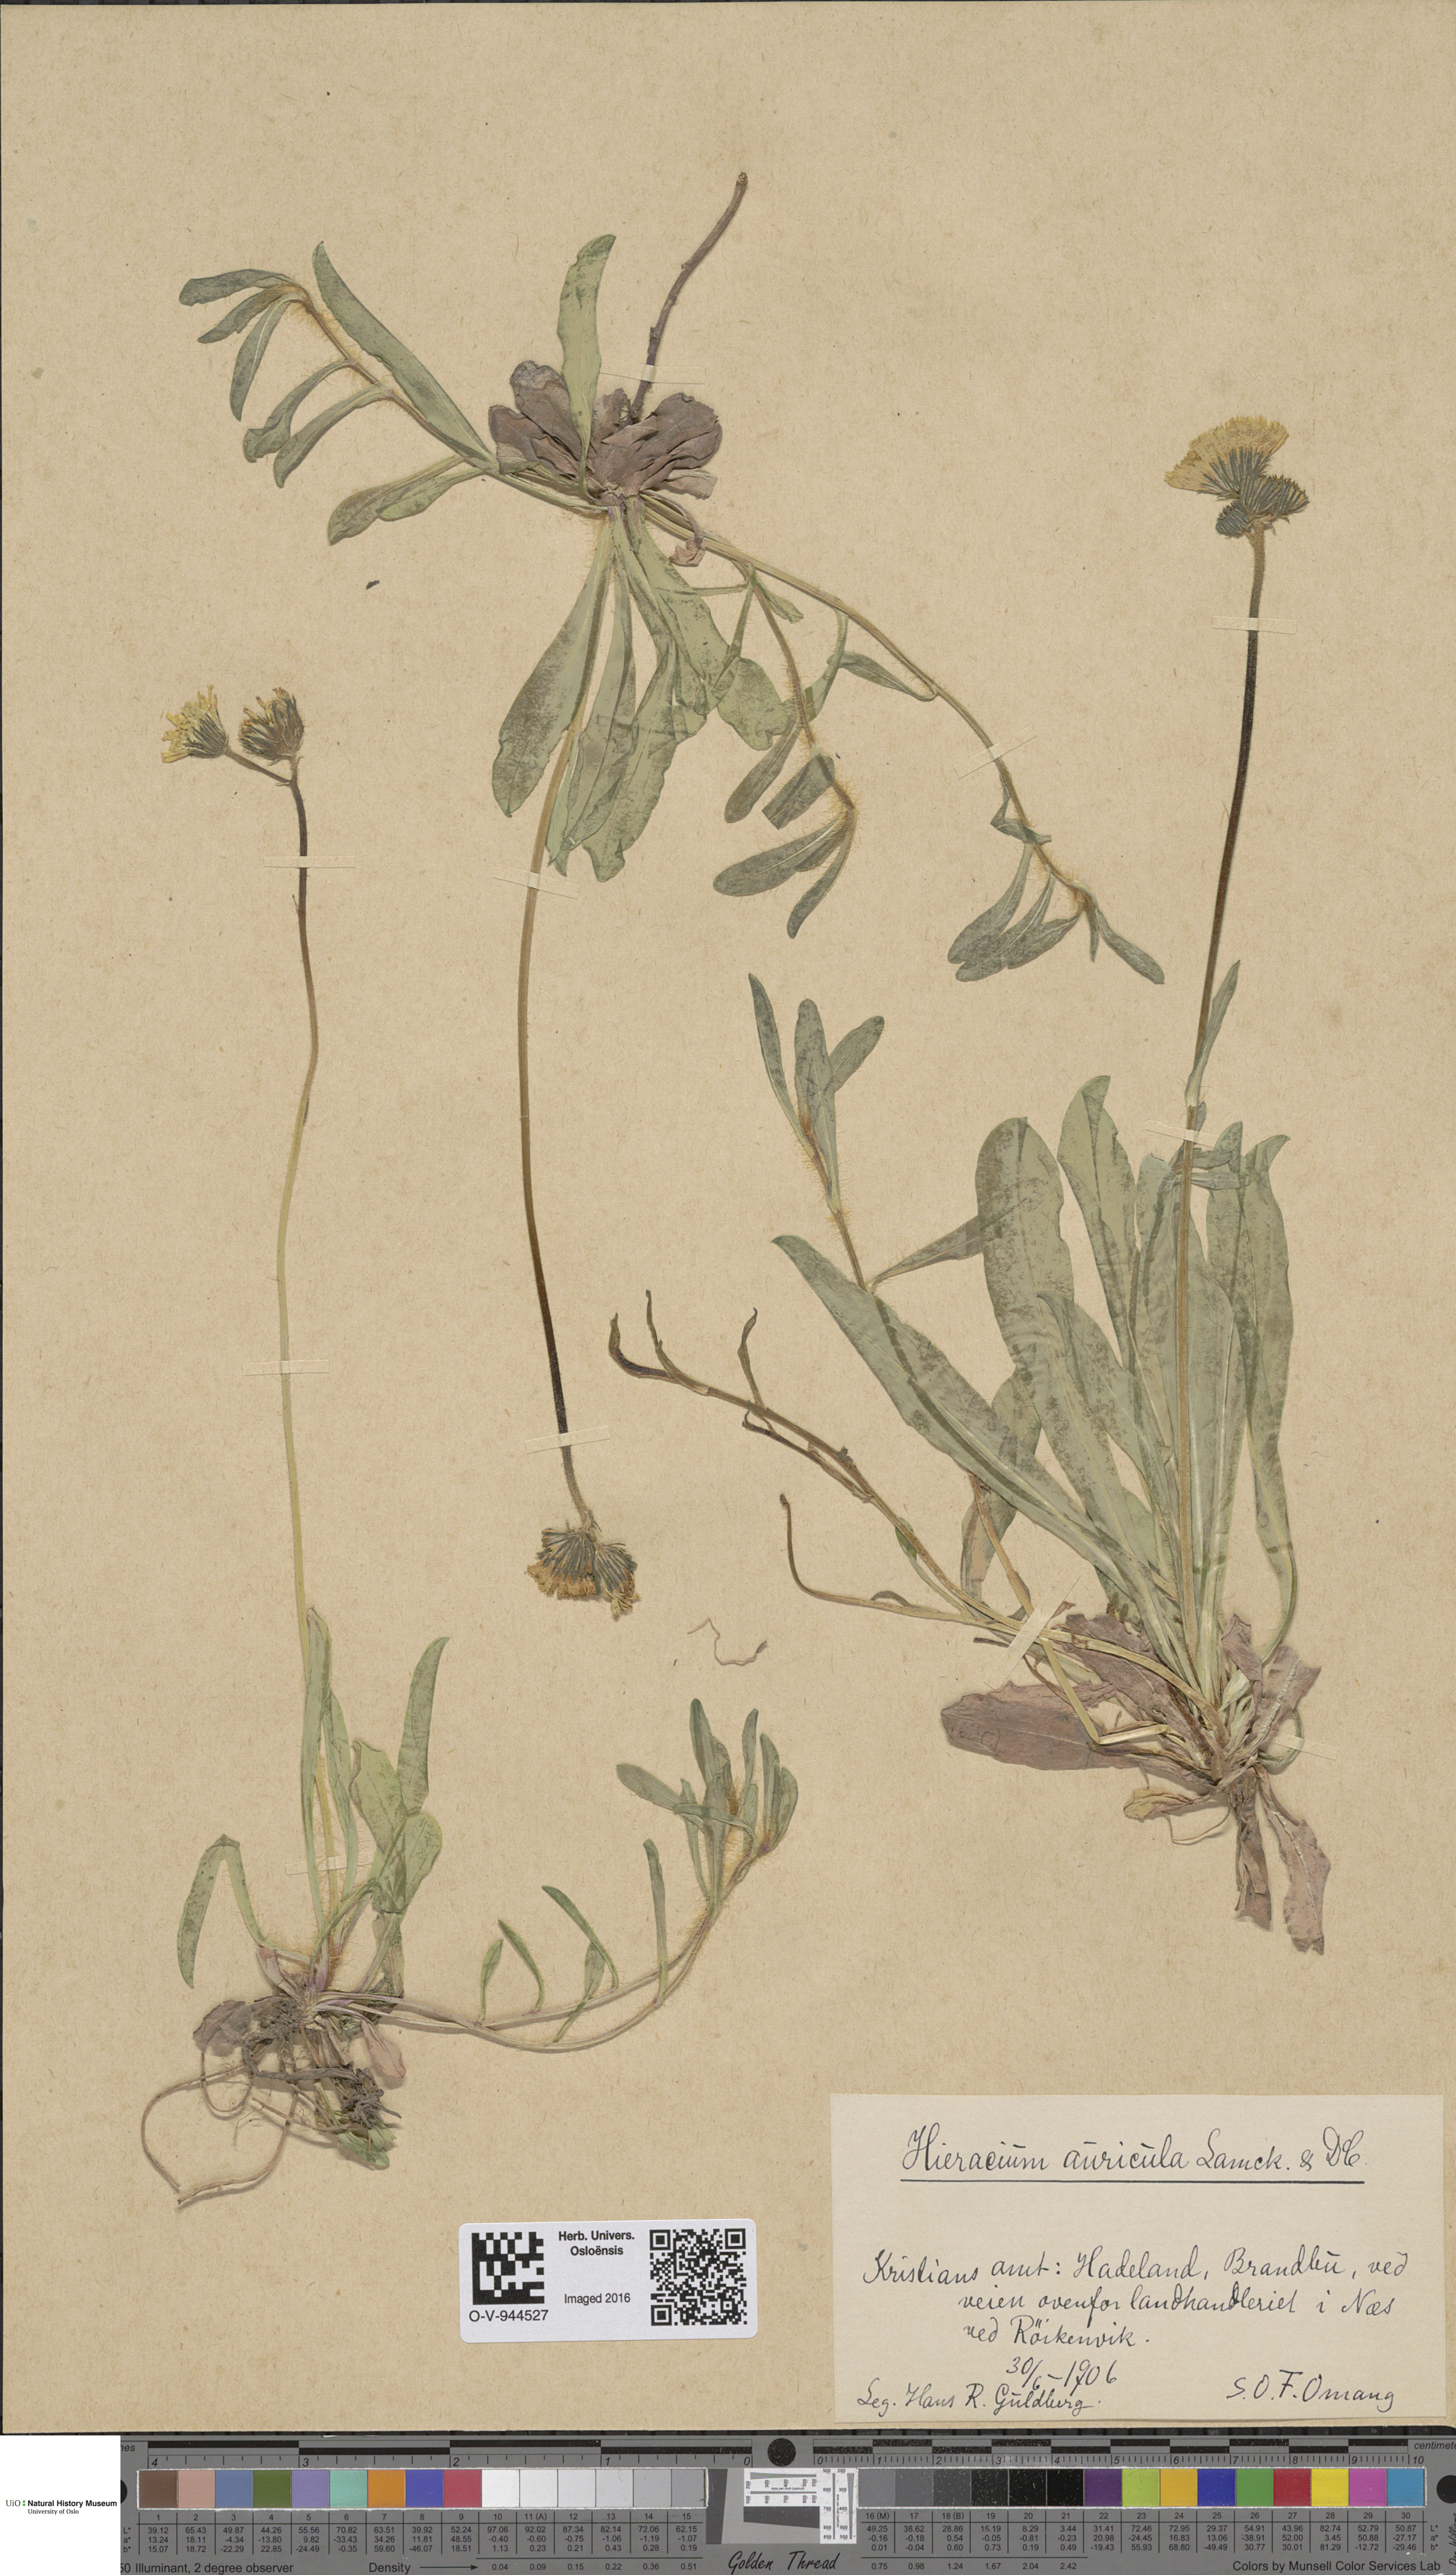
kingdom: Plantae
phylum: Tracheophyta
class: Magnoliopsida
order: Asterales
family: Asteraceae
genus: Pilosella
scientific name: Pilosella lactucella
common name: Glaucous fox-and-cubs
